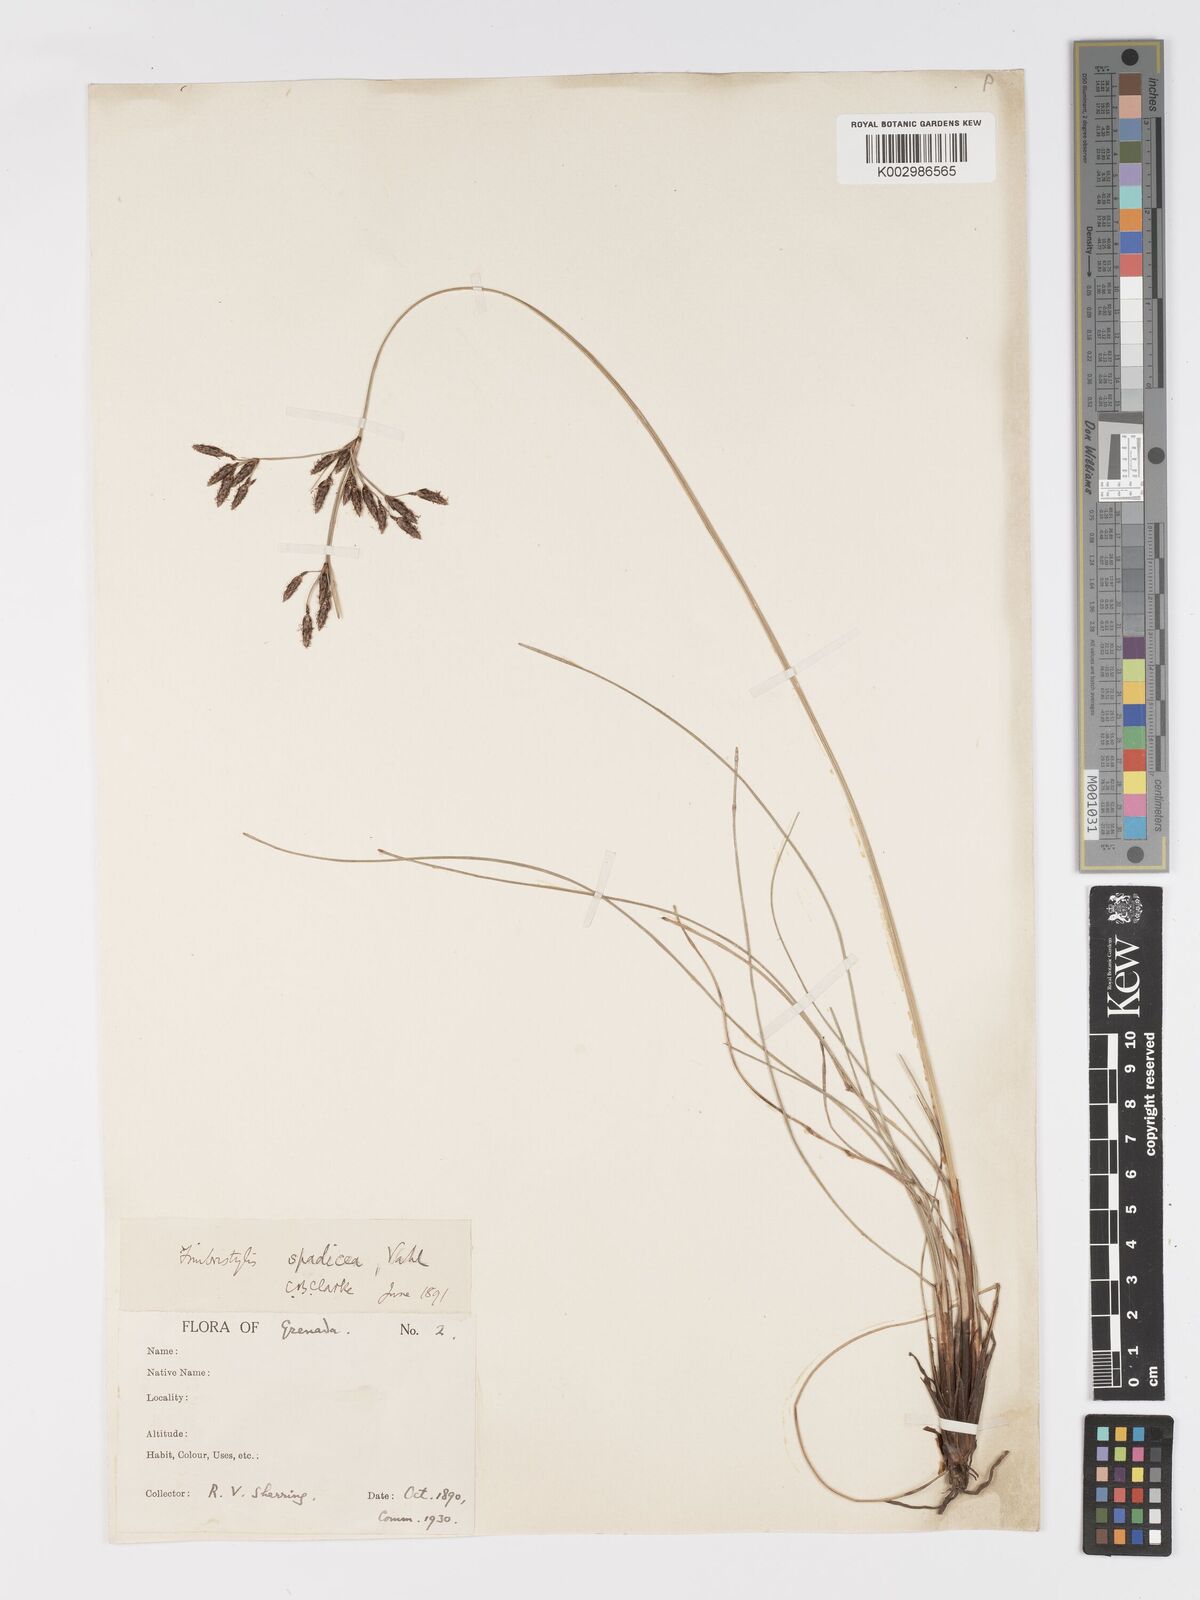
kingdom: Plantae
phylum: Tracheophyta
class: Liliopsida
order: Poales
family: Cyperaceae
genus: Fimbristylis
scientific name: Fimbristylis spadicea
